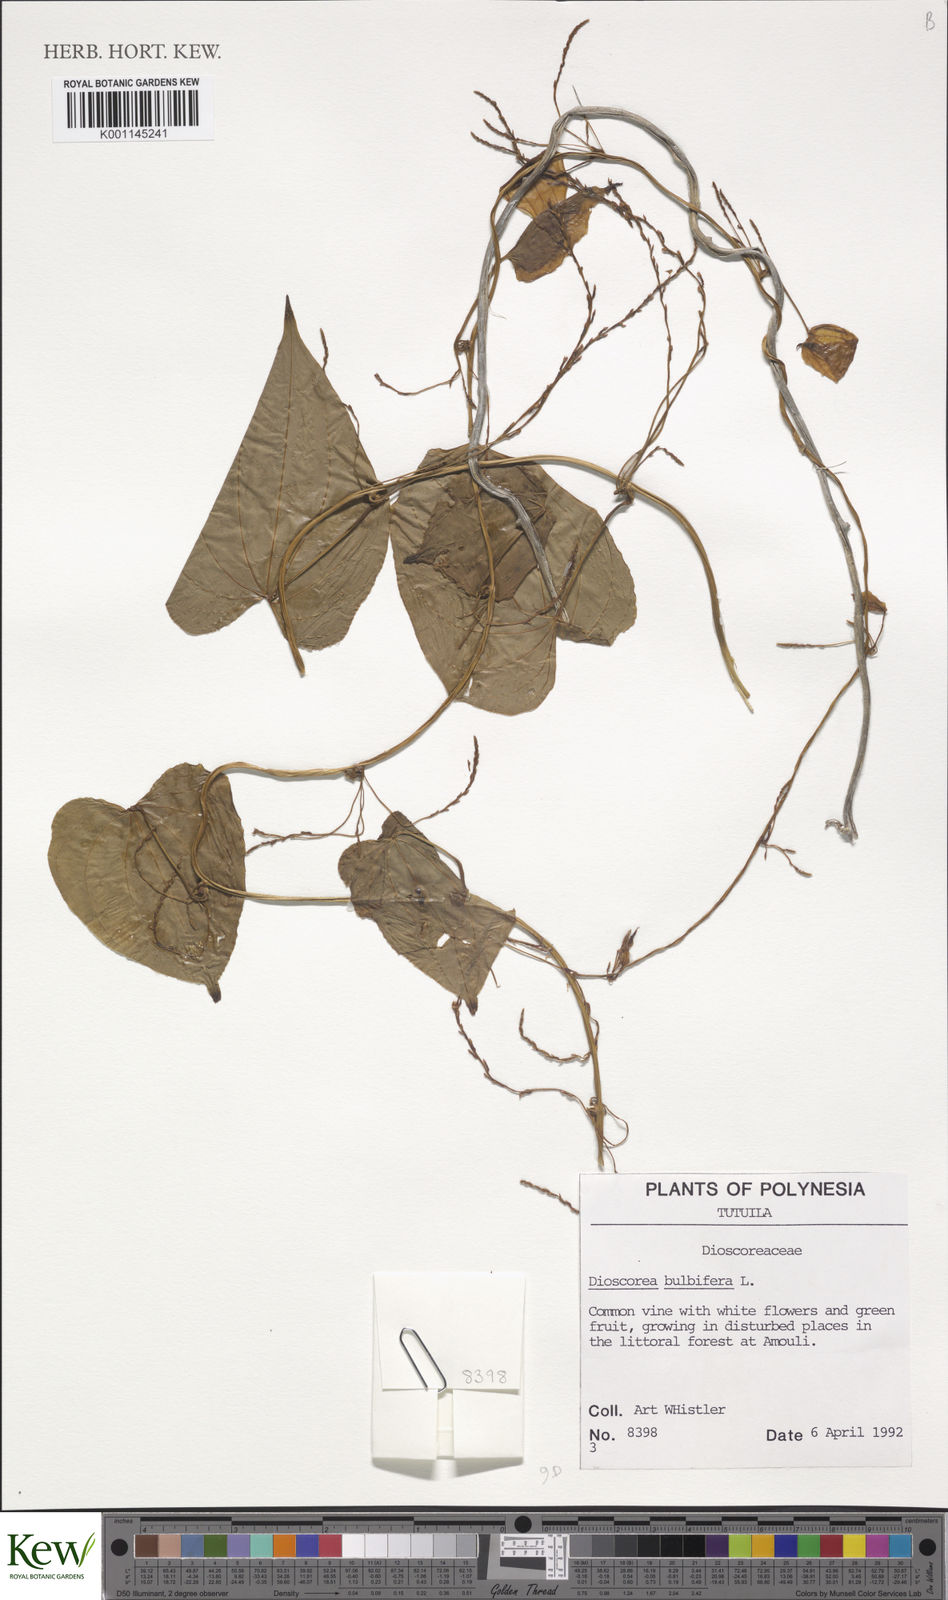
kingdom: Plantae
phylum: Tracheophyta
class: Liliopsida
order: Dioscoreales
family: Dioscoreaceae
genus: Dioscorea
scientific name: Dioscorea bulbifera
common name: Air yam
